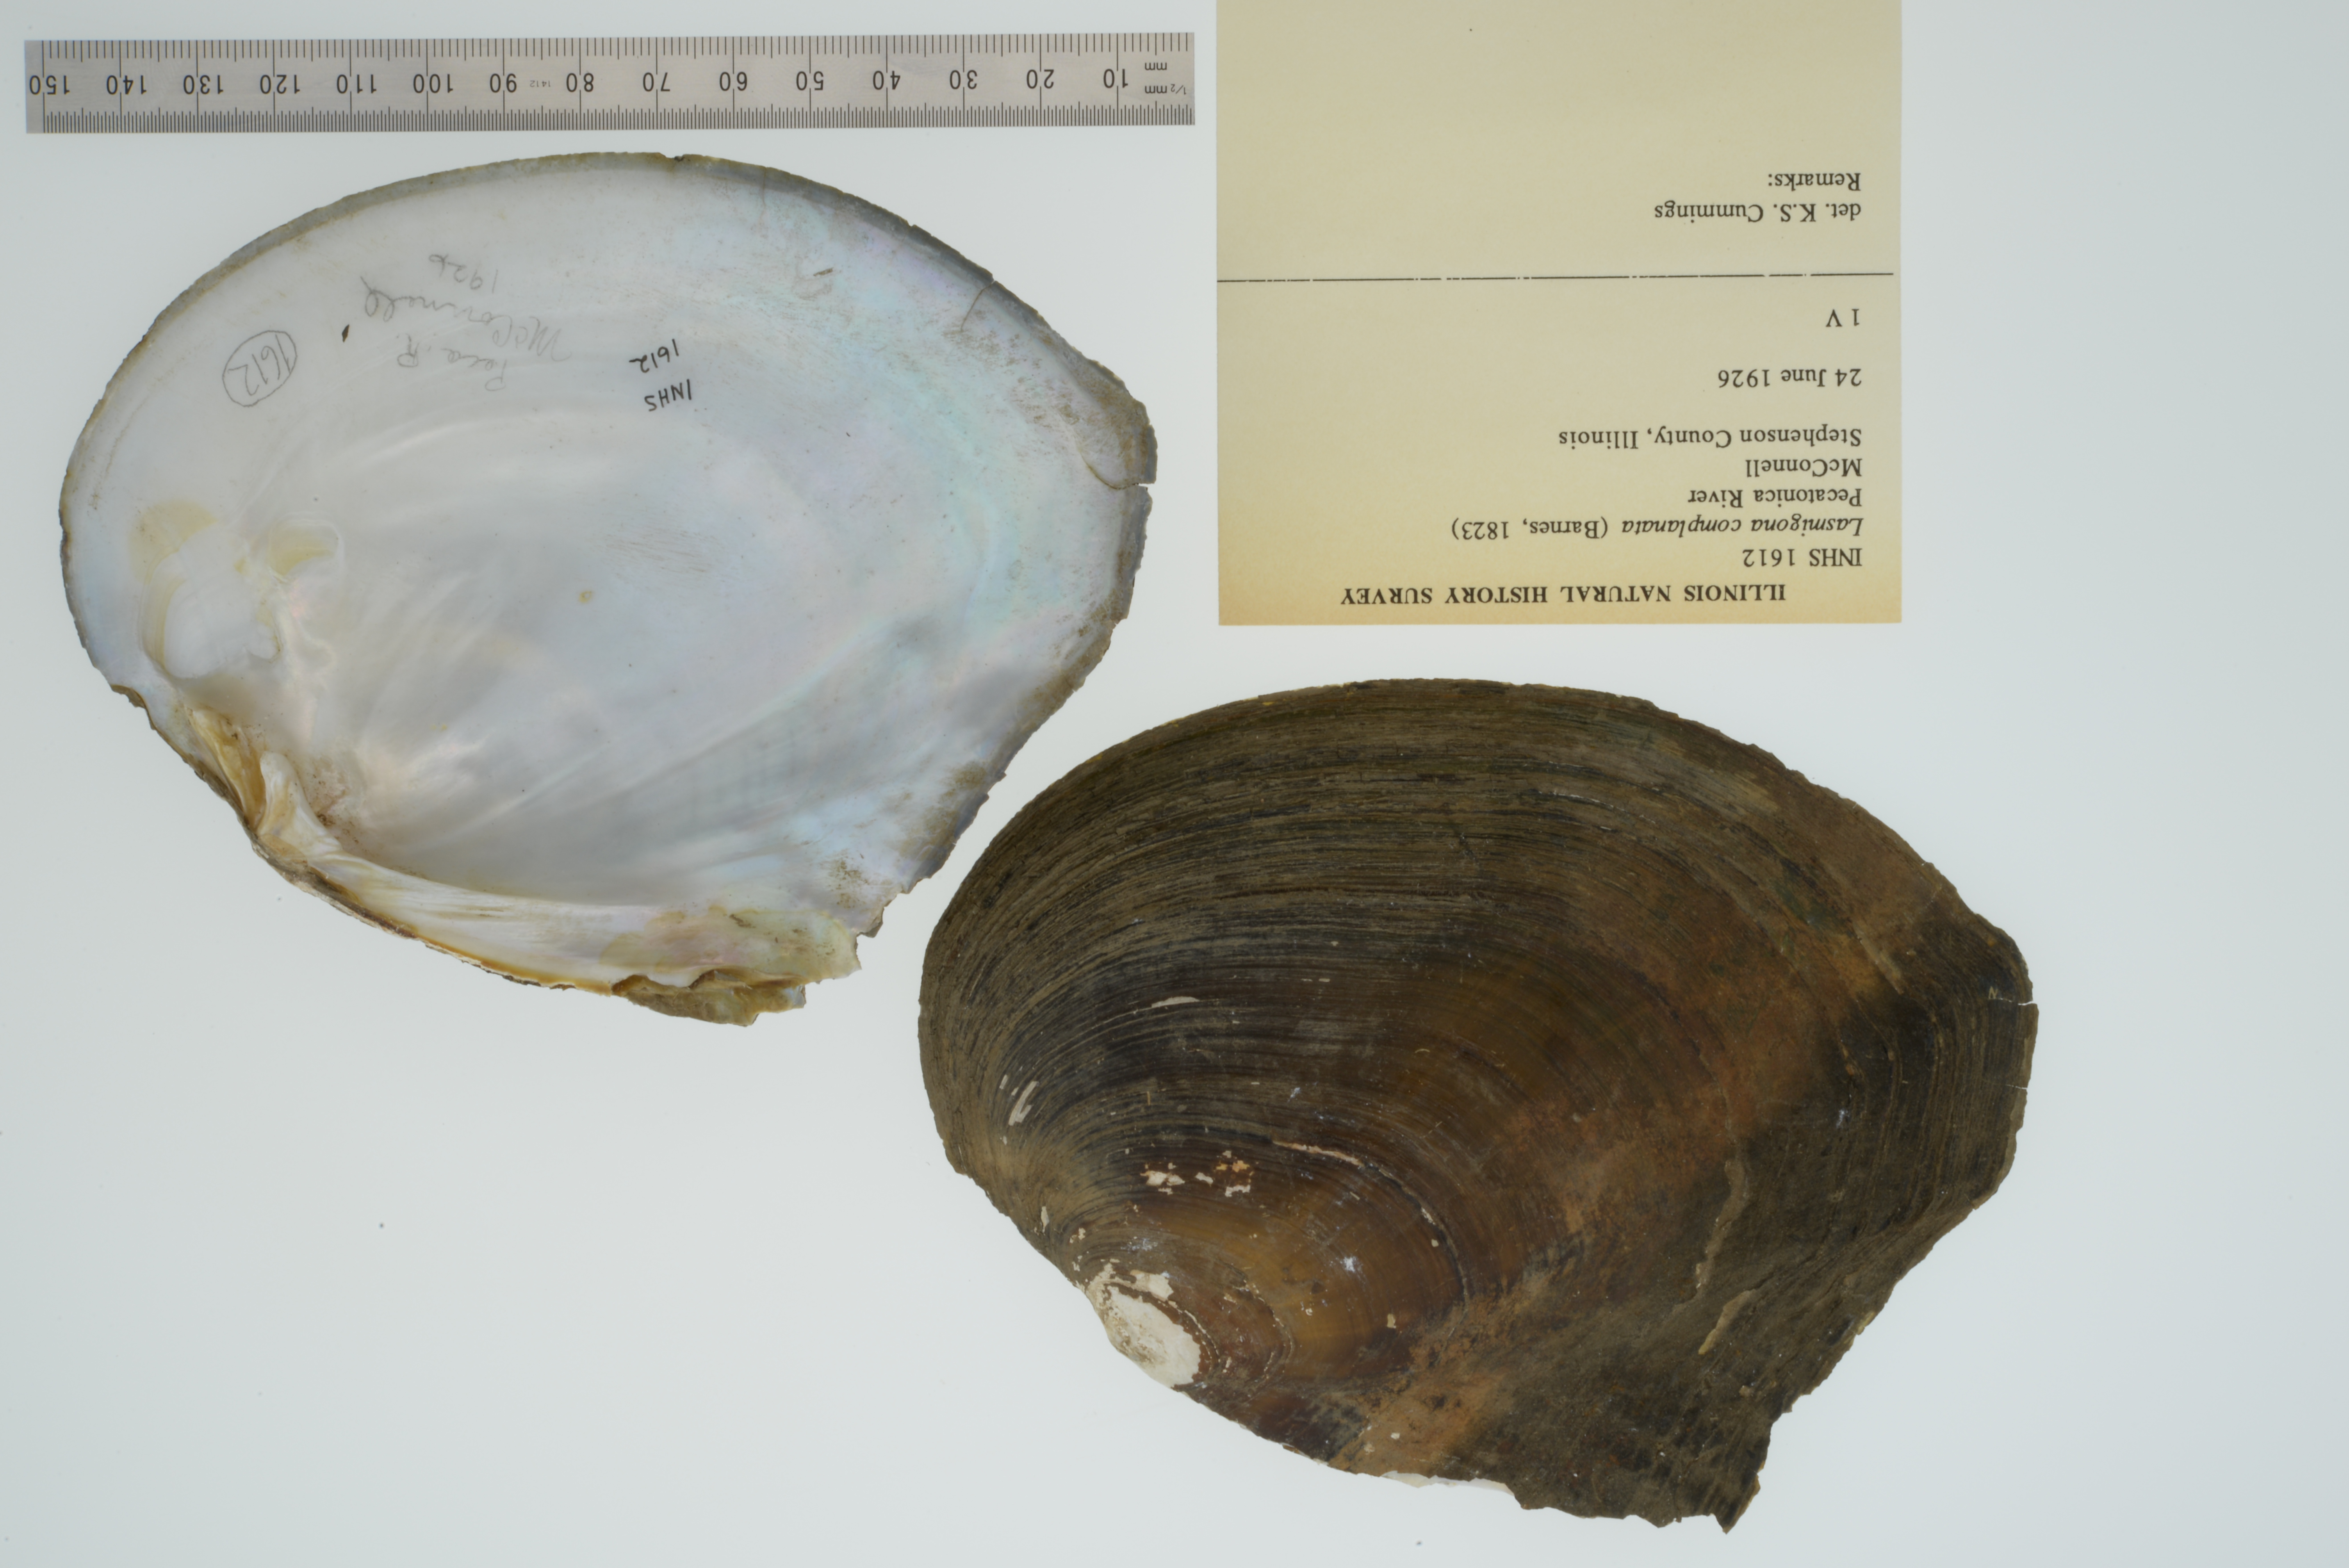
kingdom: Animalia
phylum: Mollusca
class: Bivalvia
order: Unionida
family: Unionidae
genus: Lasmigona
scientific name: Lasmigona complanata
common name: White heelsplitter
